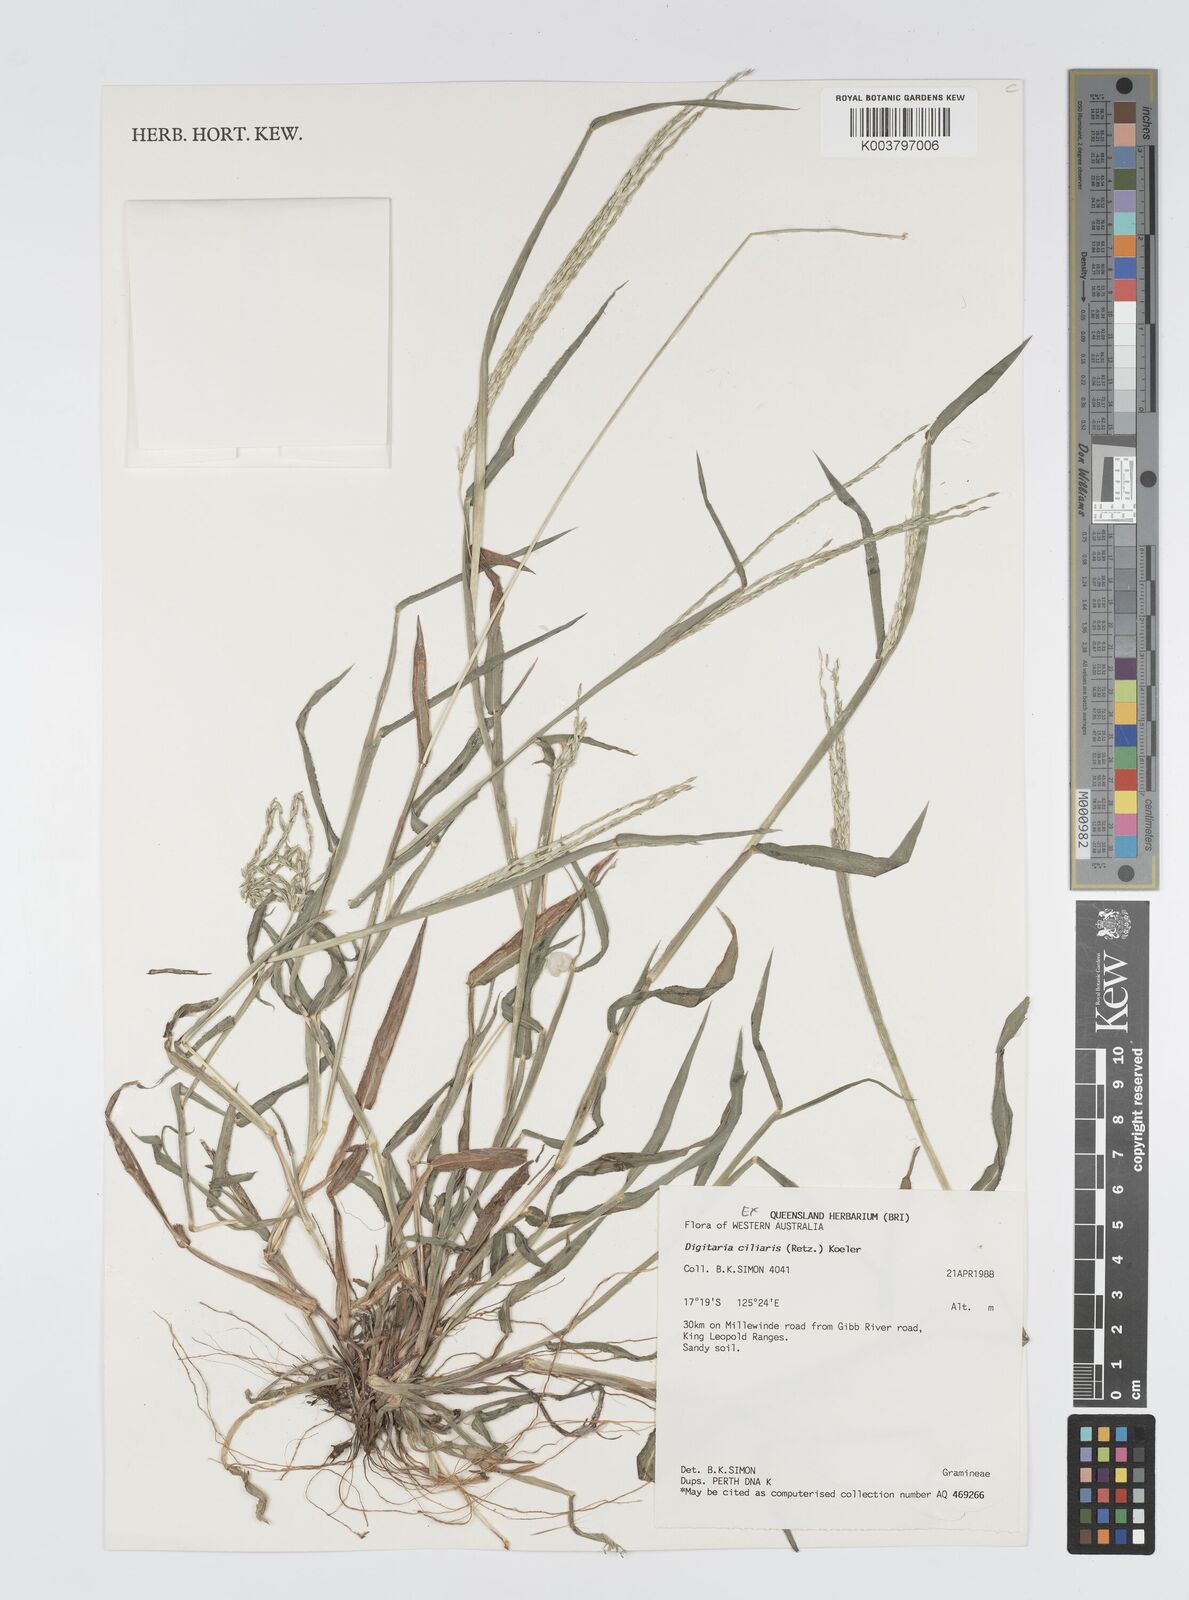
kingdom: Plantae
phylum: Tracheophyta
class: Liliopsida
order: Poales
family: Poaceae
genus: Digitaria
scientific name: Digitaria ciliaris
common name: Tropical finger-grass
